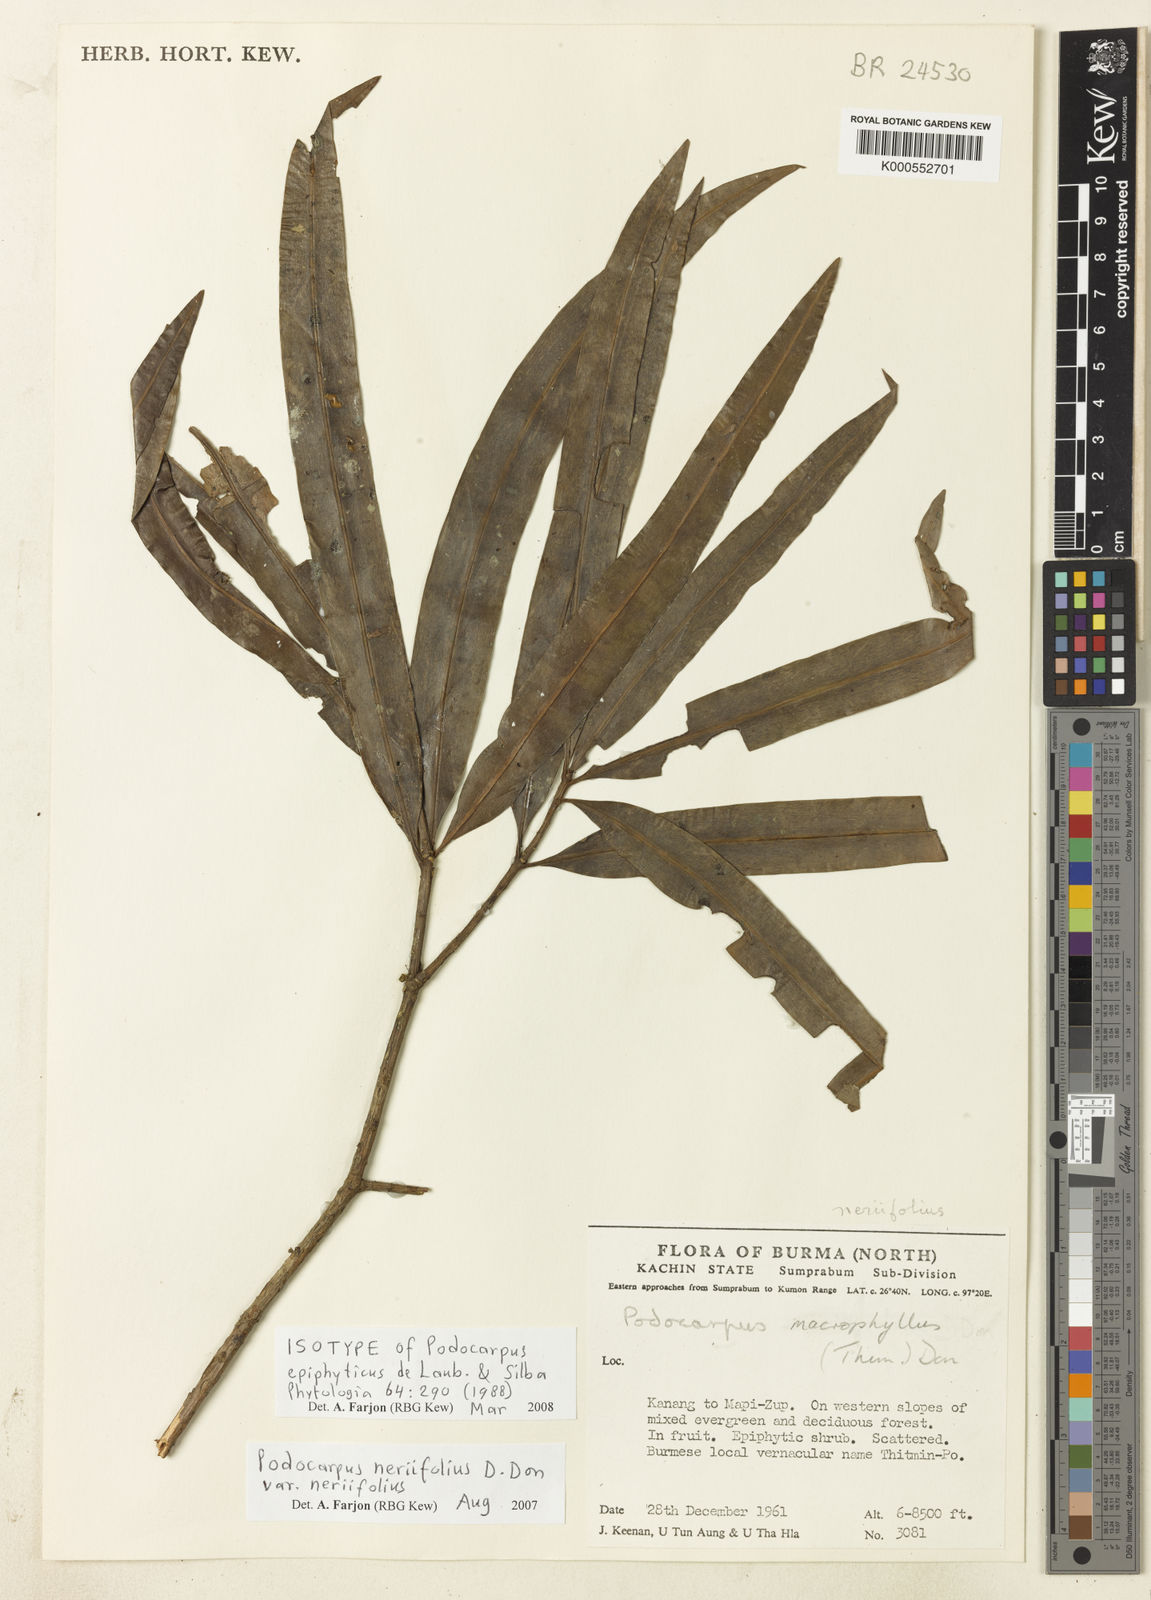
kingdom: Plantae
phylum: Tracheophyta
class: Pinopsida
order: Pinales
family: Podocarpaceae
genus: Podocarpus
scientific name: Podocarpus neriifolius
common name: Brown pine
